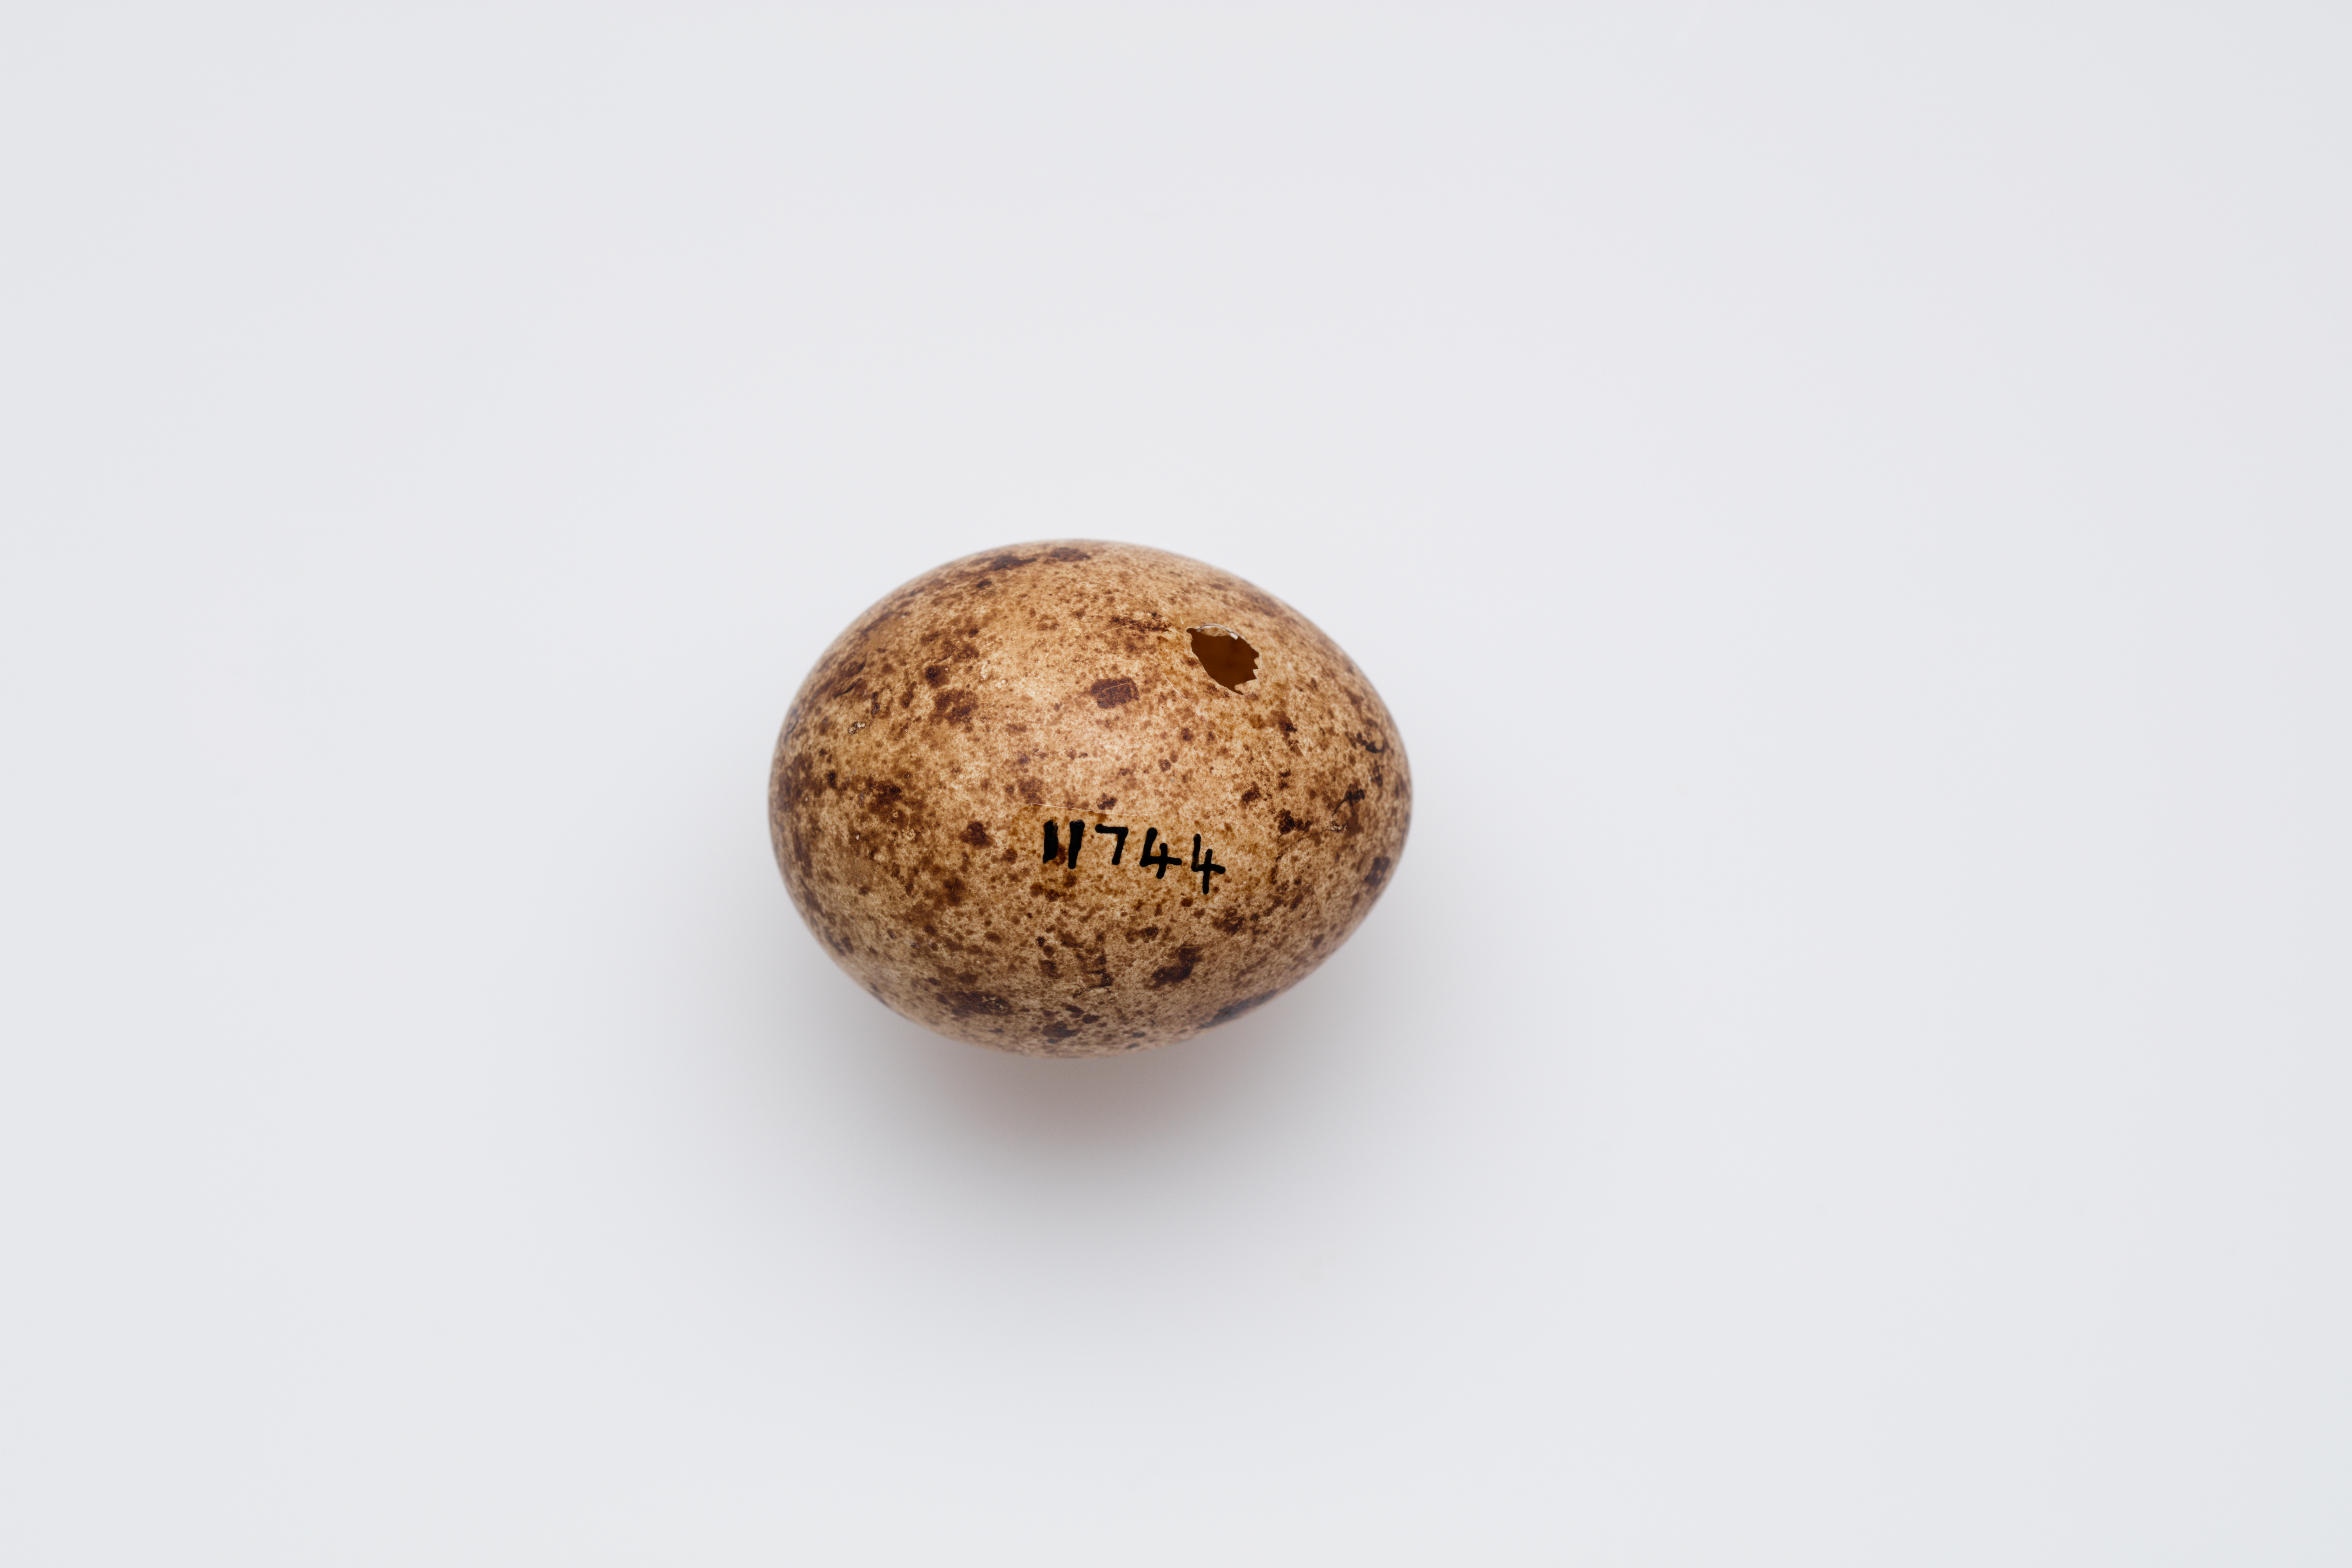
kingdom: Animalia
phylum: Chordata
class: Aves
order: Falconiformes
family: Falconidae
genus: Falco
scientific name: Falco cenchroides
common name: Nankeen kestrel
